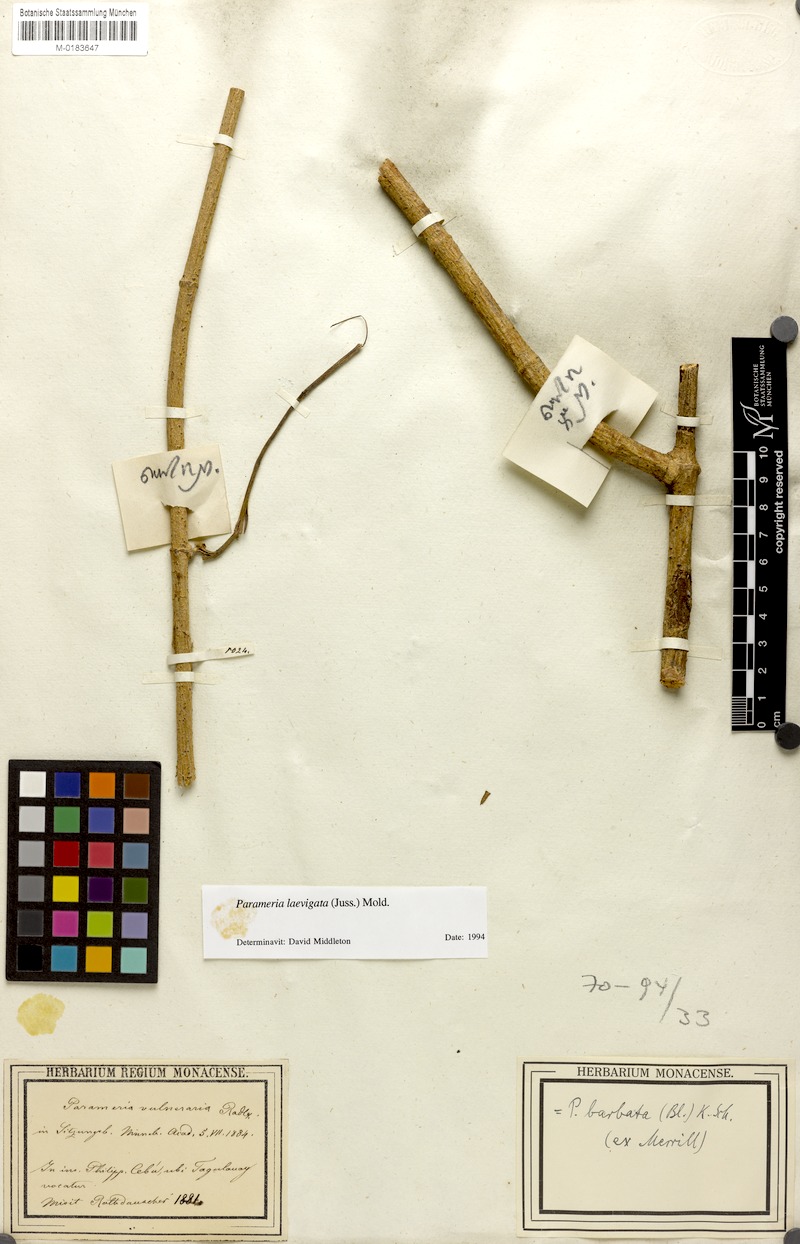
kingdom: Plantae
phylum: Tracheophyta
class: Magnoliopsida
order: Gentianales
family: Apocynaceae
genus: Urceola
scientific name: Urceola laevigata
